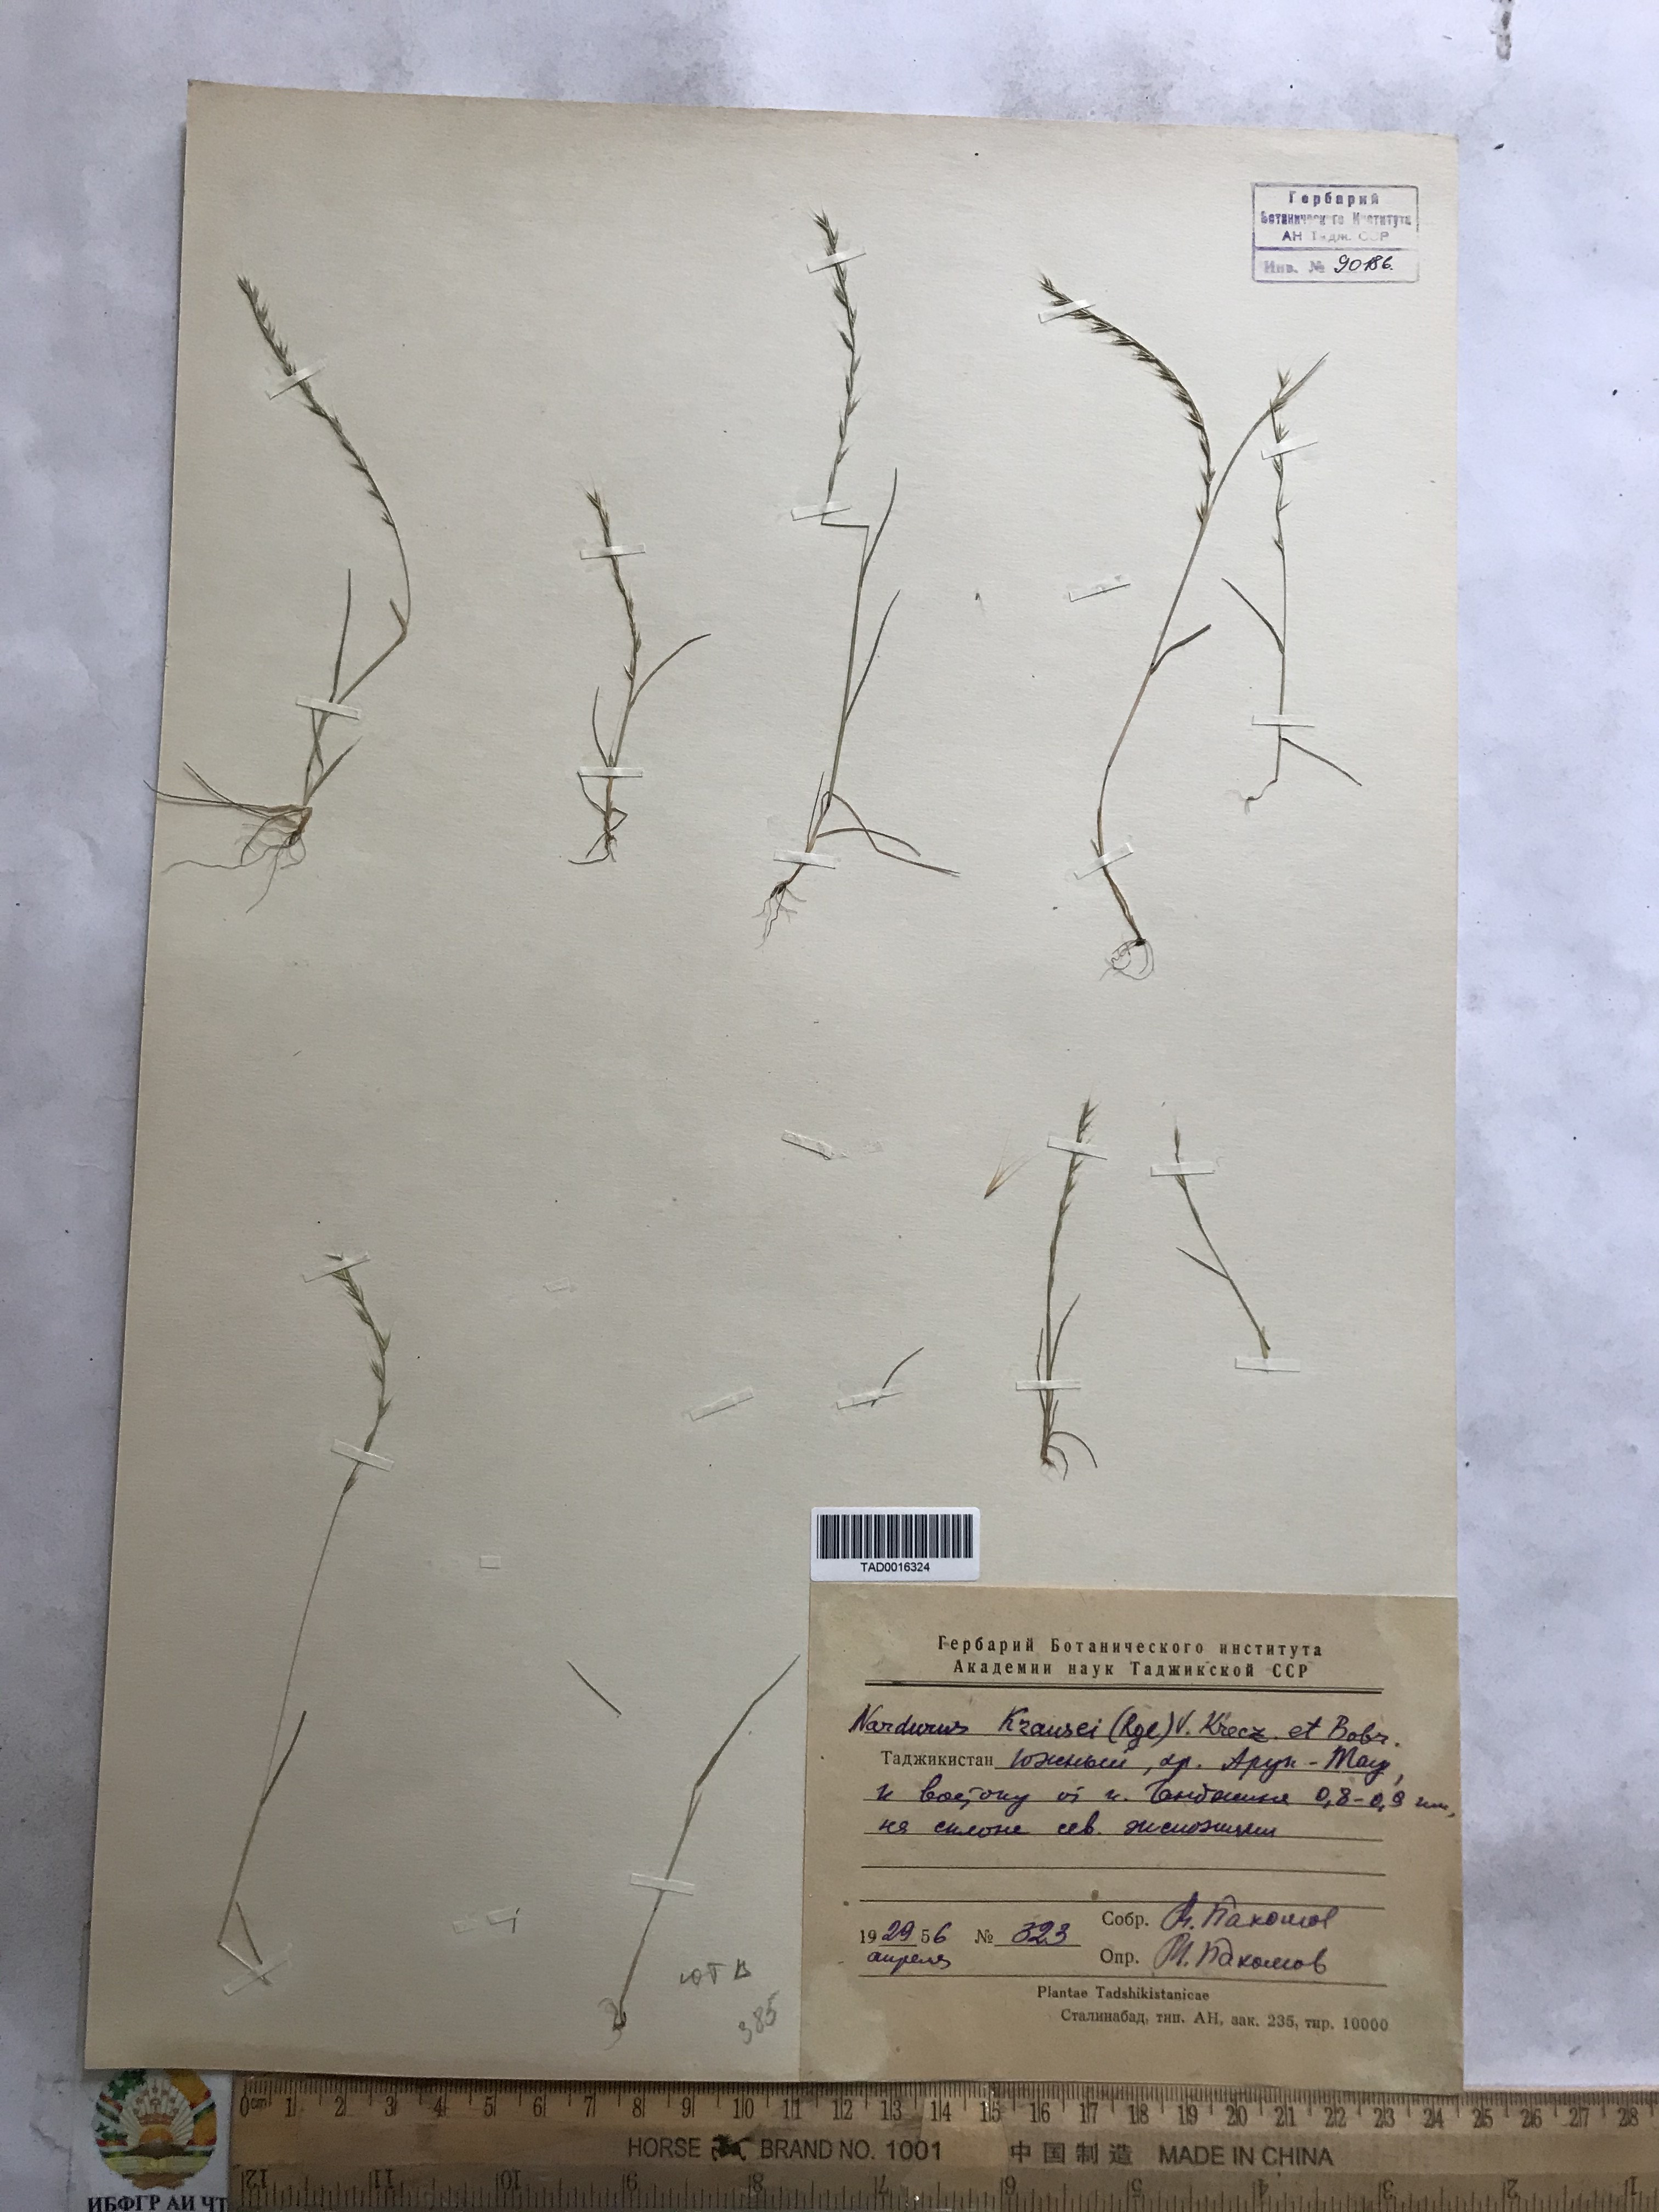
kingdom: Plantae
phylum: Tracheophyta
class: Liliopsida
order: Poales
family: Poaceae
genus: Festuca
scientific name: Festuca maritima
